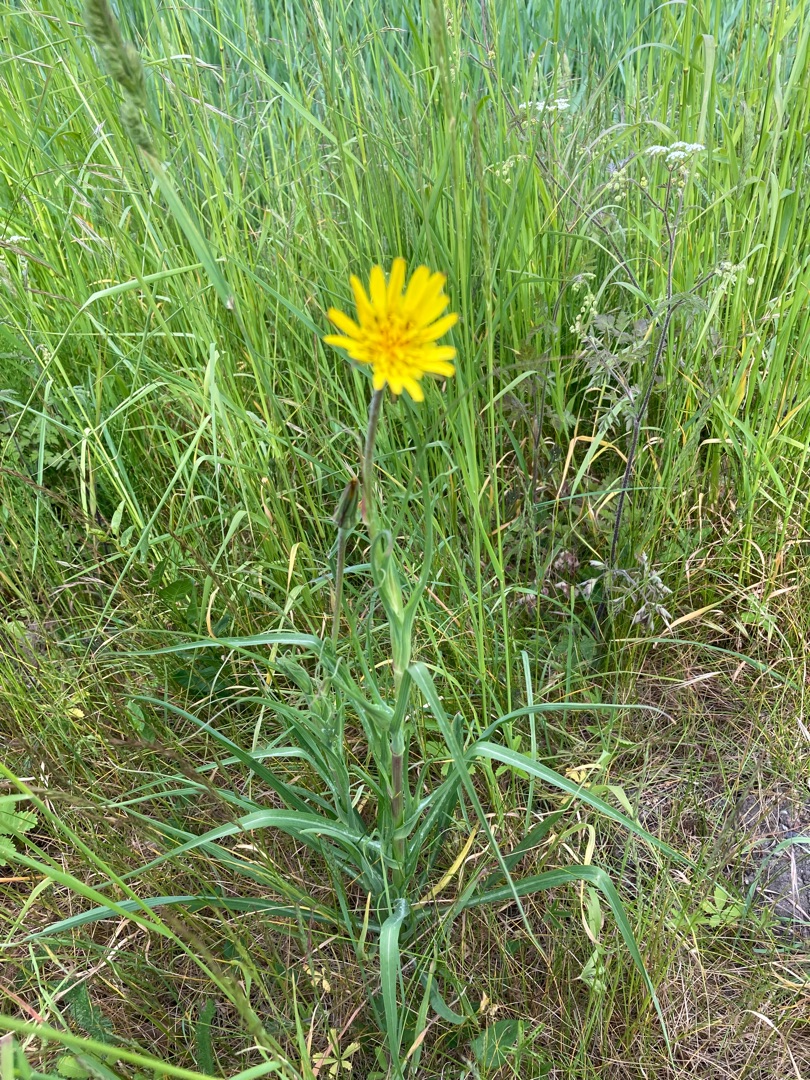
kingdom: Plantae
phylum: Tracheophyta
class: Magnoliopsida
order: Asterales
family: Asteraceae
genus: Tragopogon
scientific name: Tragopogon pratensis
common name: Gedeskæg
